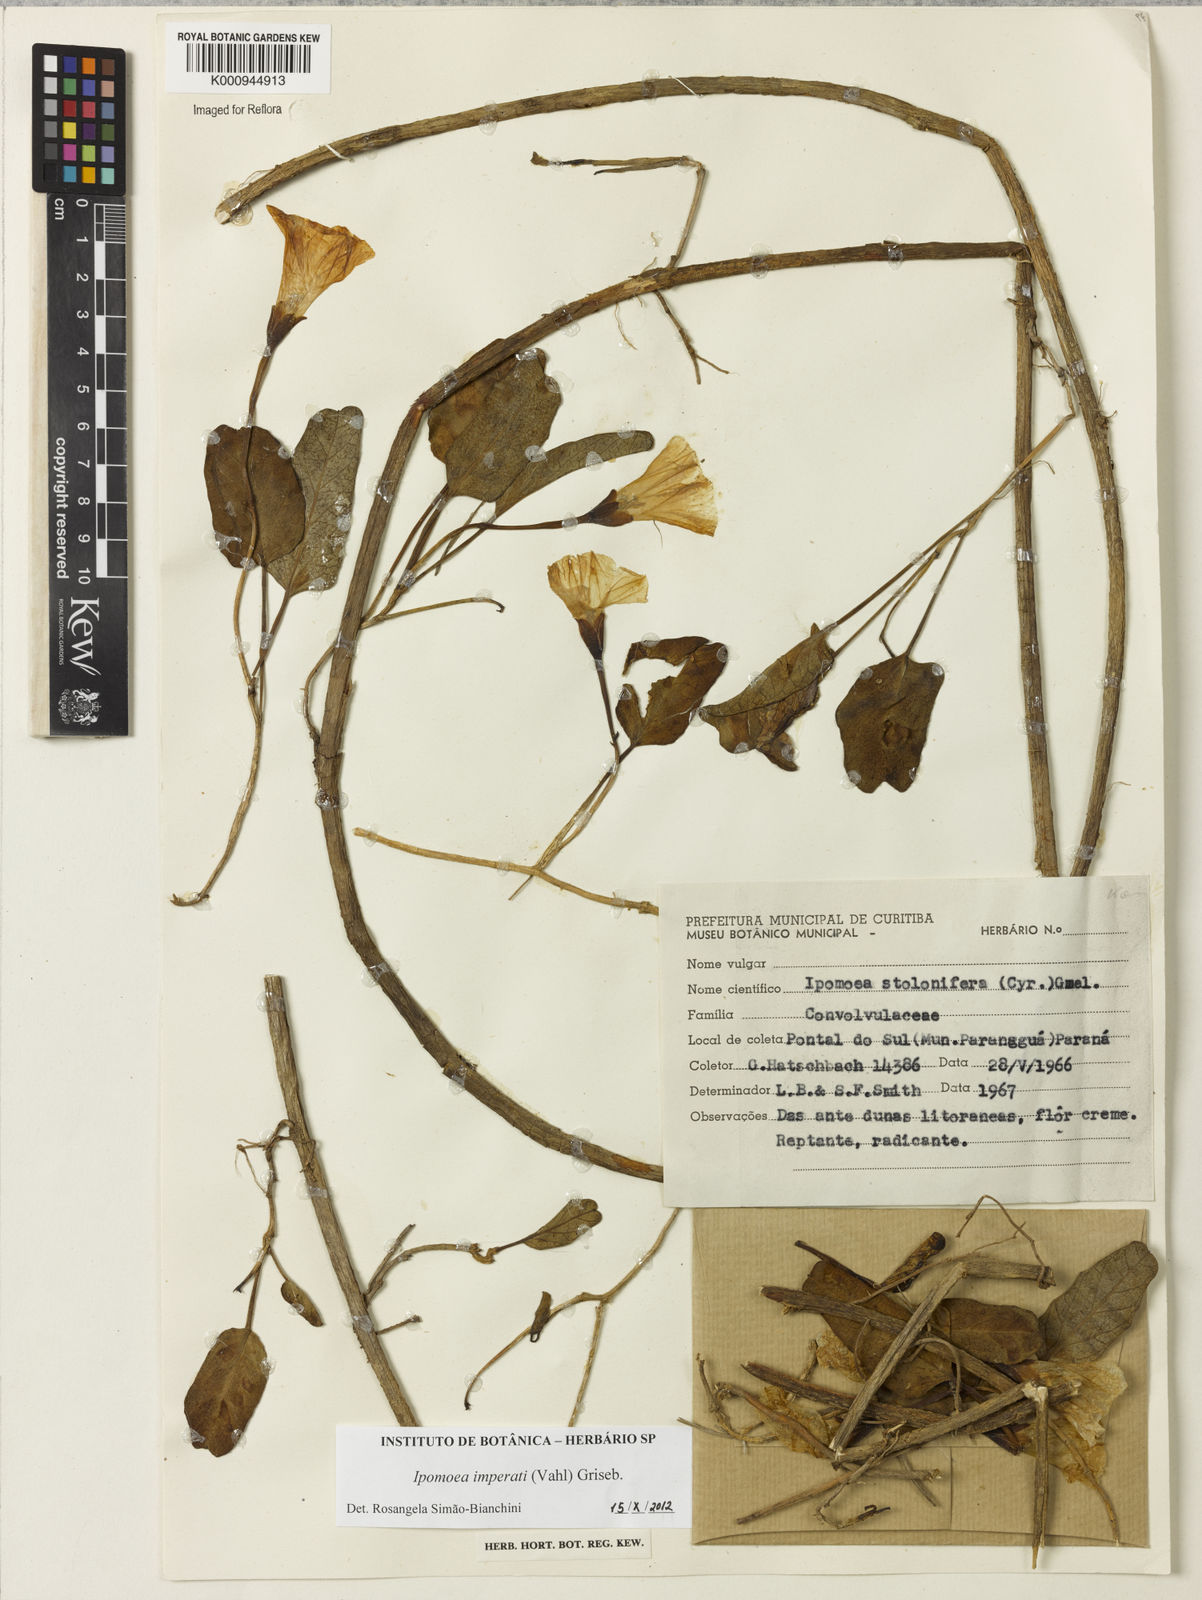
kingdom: Plantae
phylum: Tracheophyta
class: Magnoliopsida
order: Solanales
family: Convolvulaceae
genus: Ipomoea
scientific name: Ipomoea imperati
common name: Fiddle-leaf morning-glory
